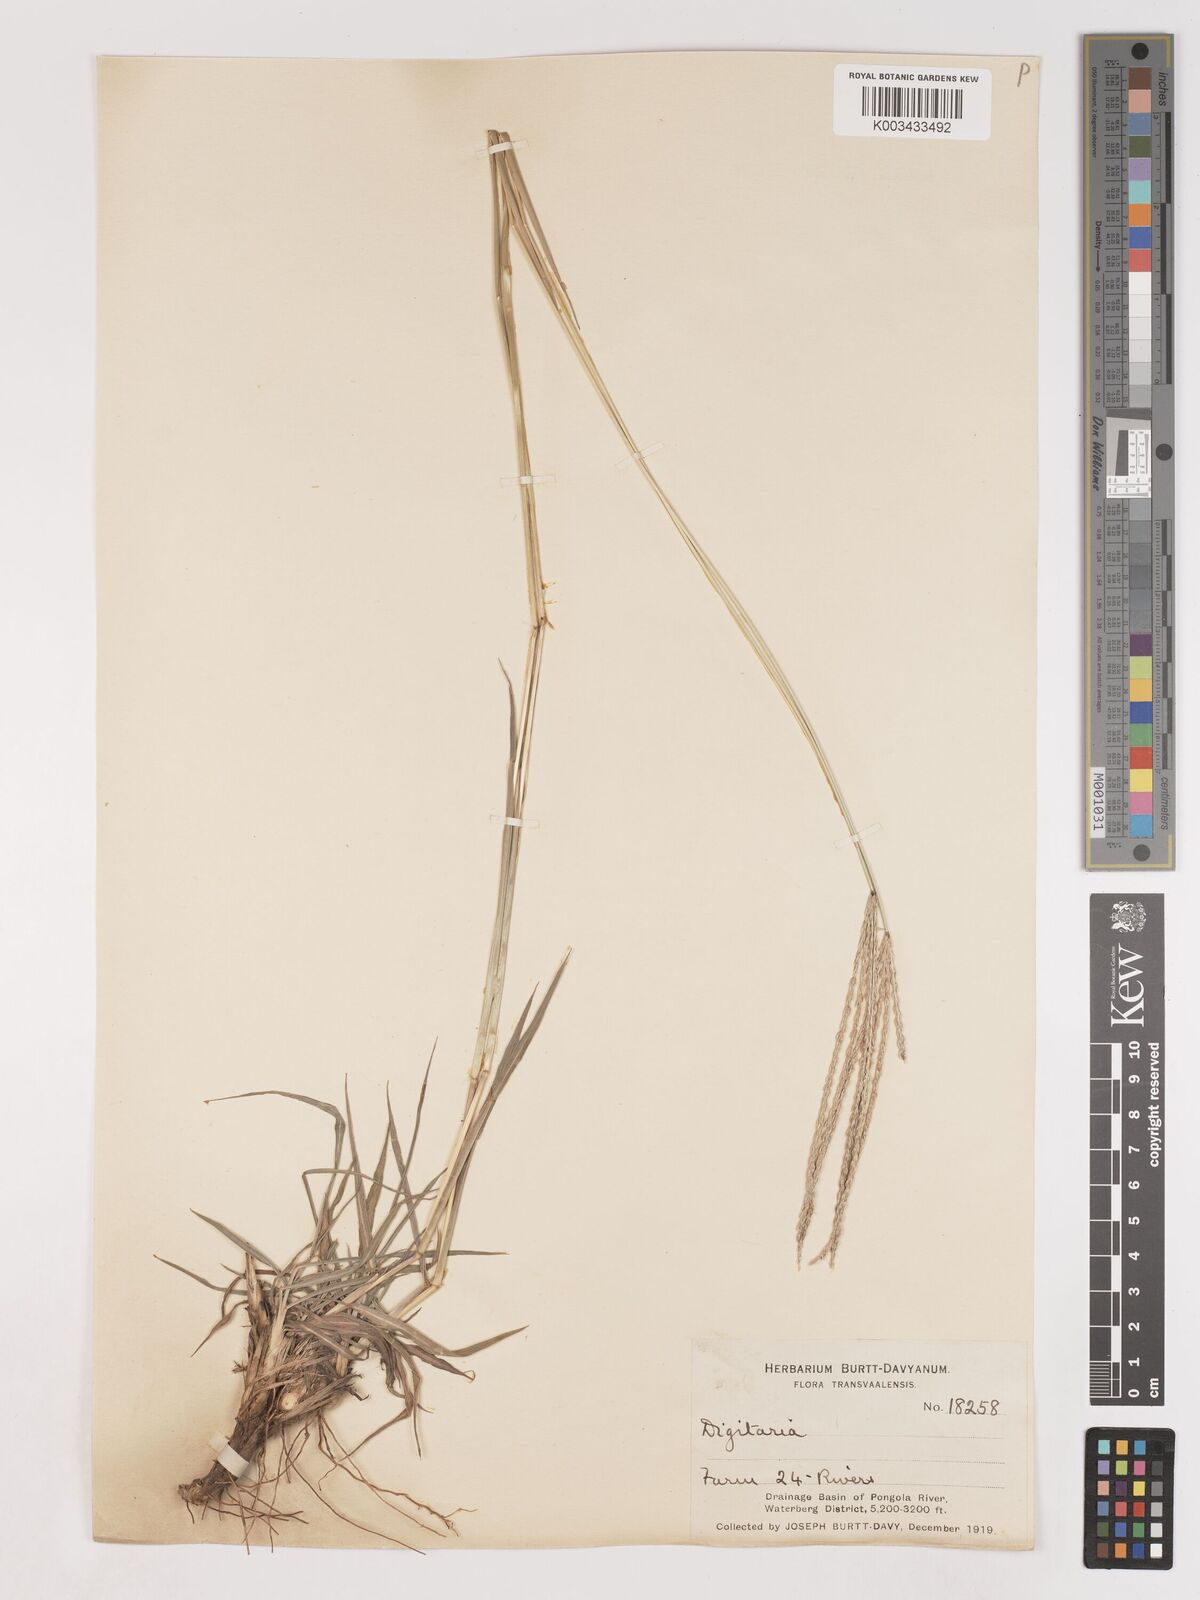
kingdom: Plantae
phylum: Tracheophyta
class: Liliopsida
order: Poales
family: Poaceae
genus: Digitaria
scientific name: Digitaria eriantha
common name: Digitgrass
